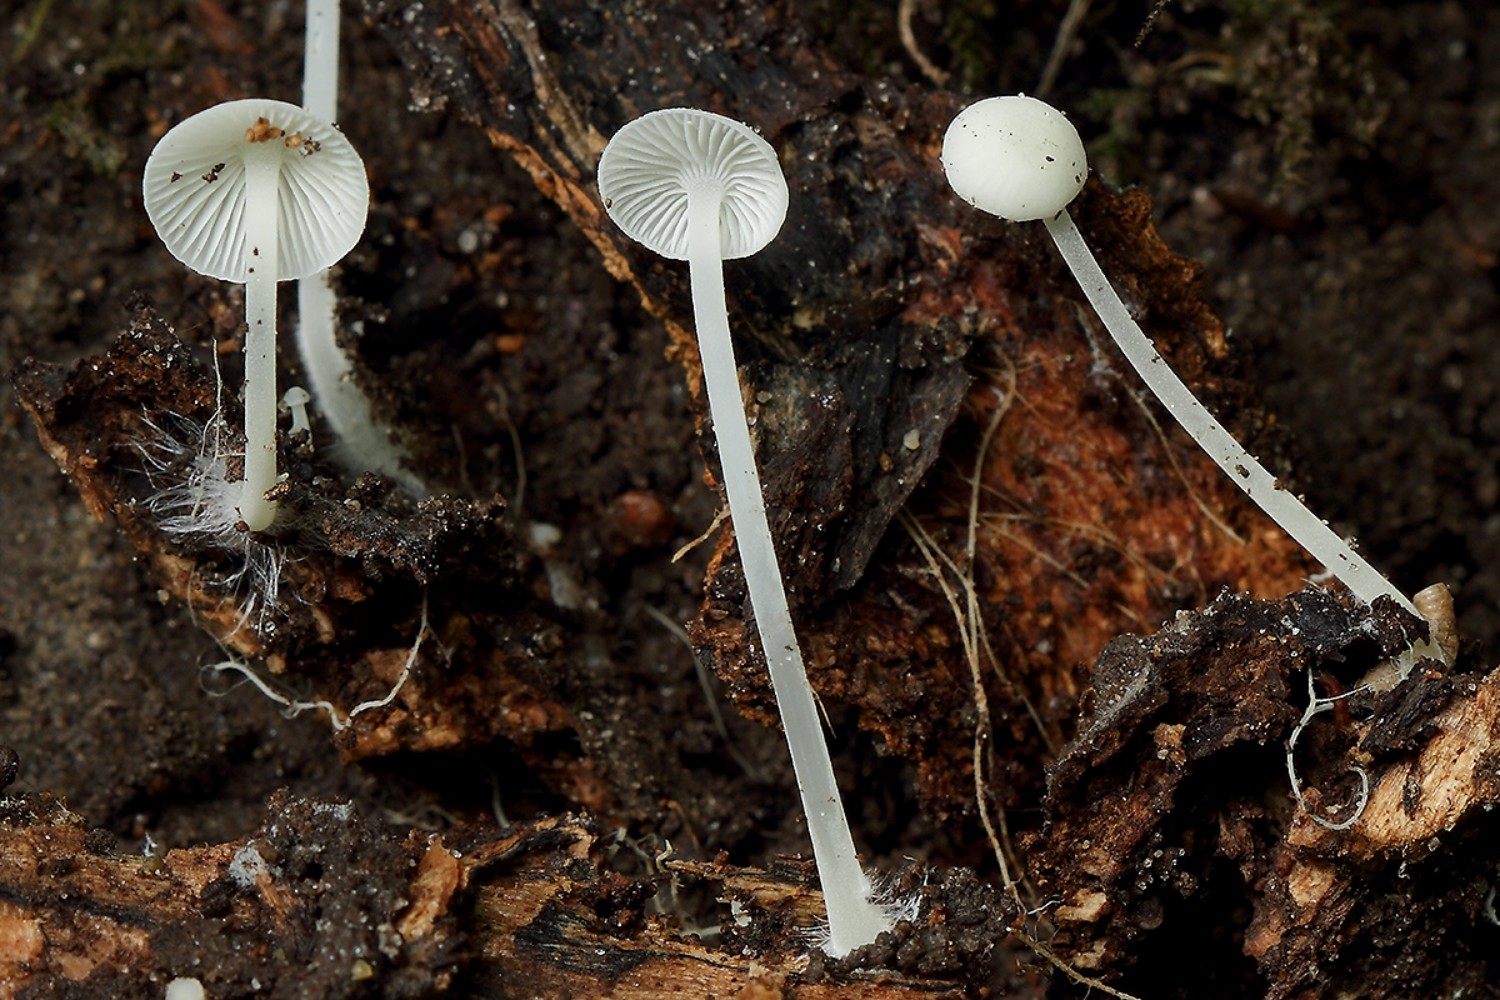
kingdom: Fungi
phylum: Basidiomycota
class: Agaricomycetes
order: Agaricales
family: Mycenaceae
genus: Hemimycena
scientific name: Hemimycena cucullata
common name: tætbladet huesvamp
